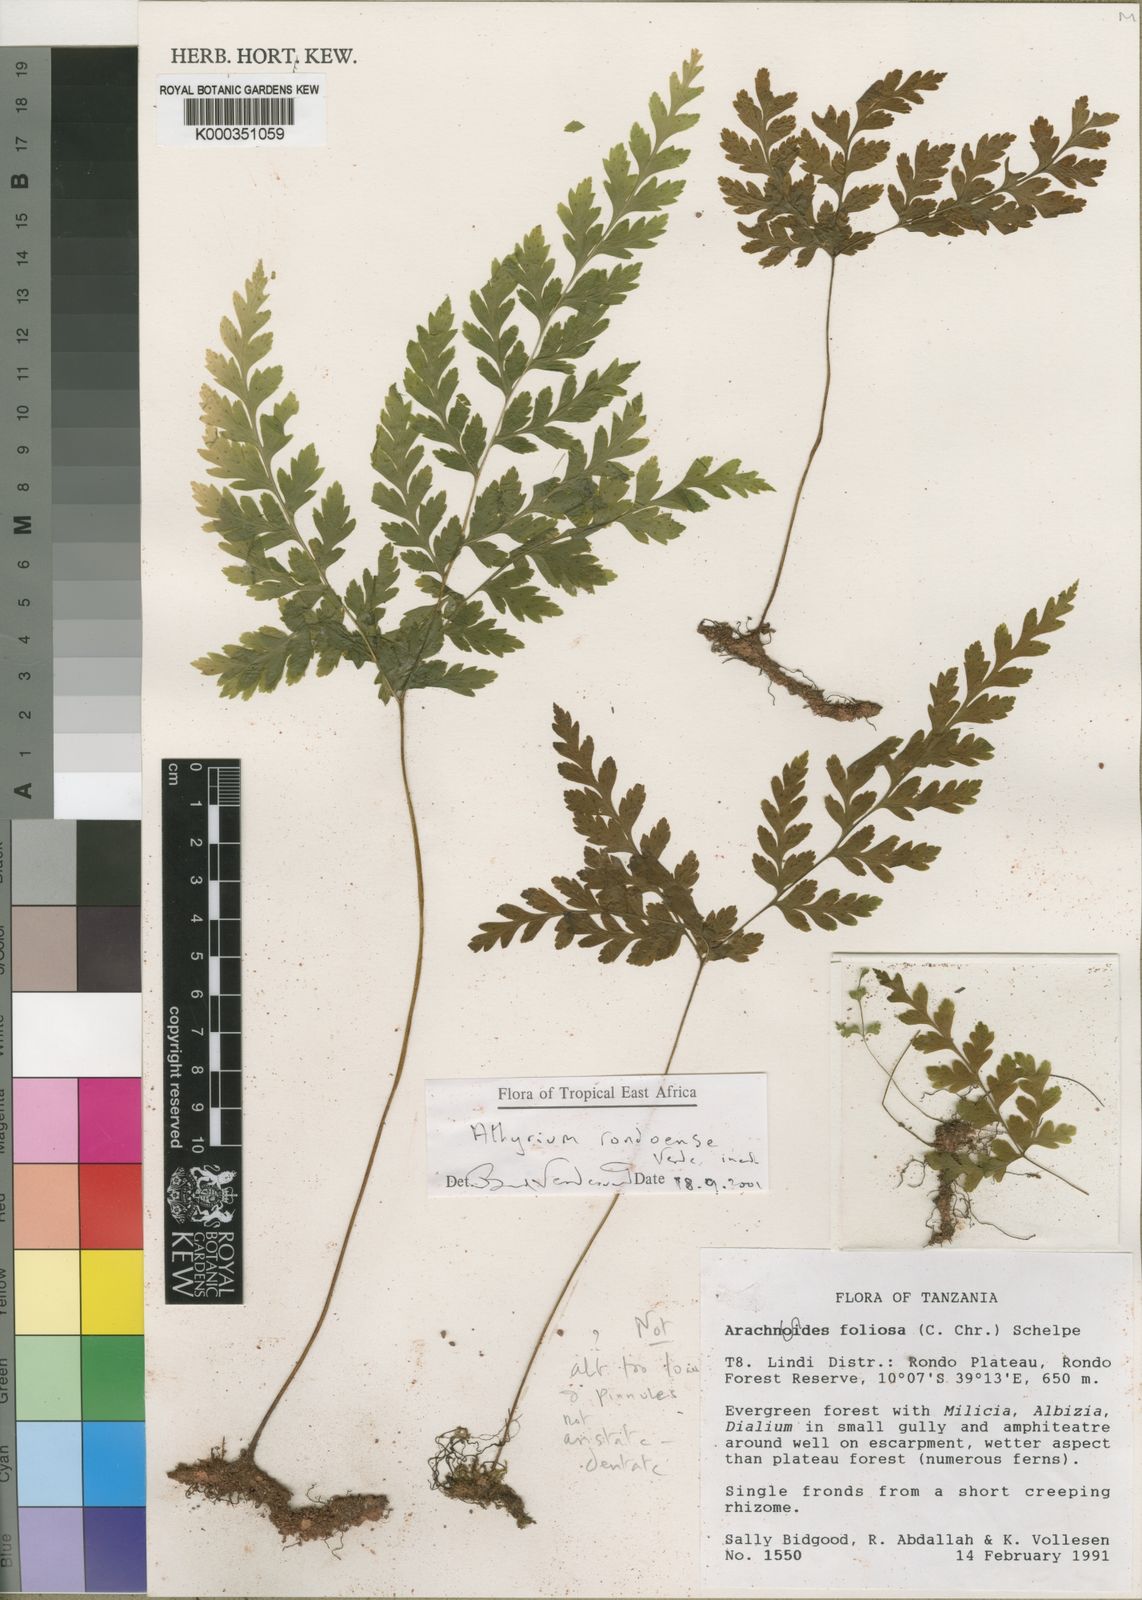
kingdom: Plantae
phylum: Tracheophyta
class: Polypodiopsida
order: Polypodiales
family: Athyriaceae
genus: Athyrium
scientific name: Athyrium rondoense
